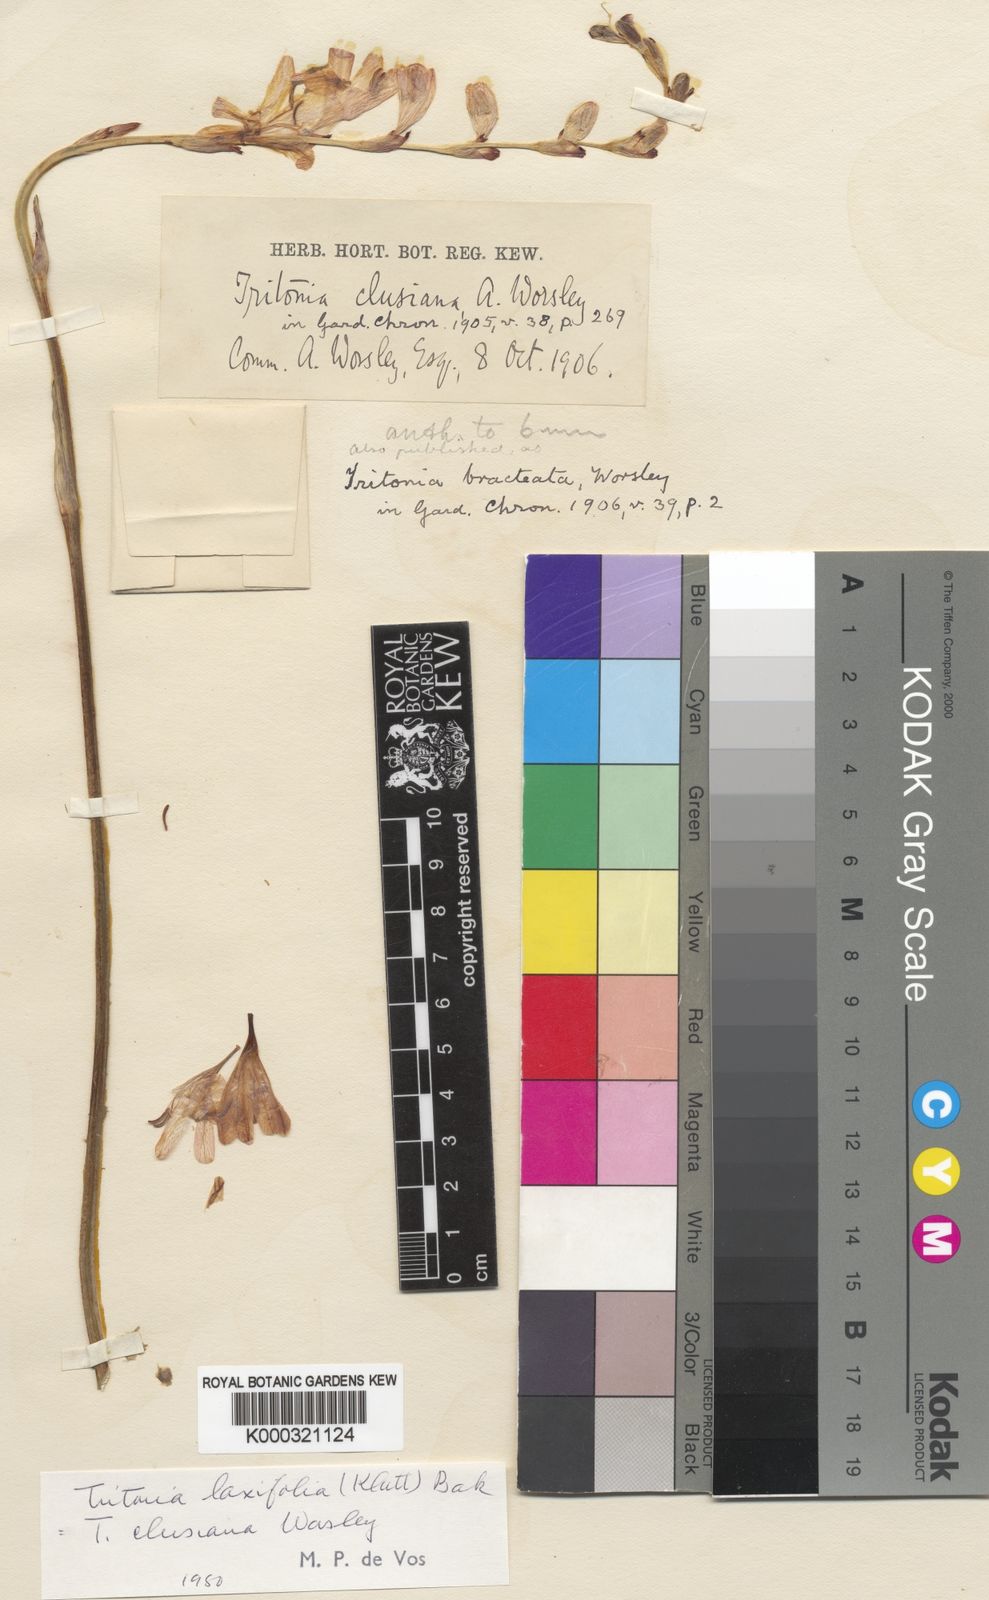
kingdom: Plantae
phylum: Tracheophyta
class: Liliopsida
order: Asparagales
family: Iridaceae
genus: Tritonia
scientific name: Tritonia laxifolia
